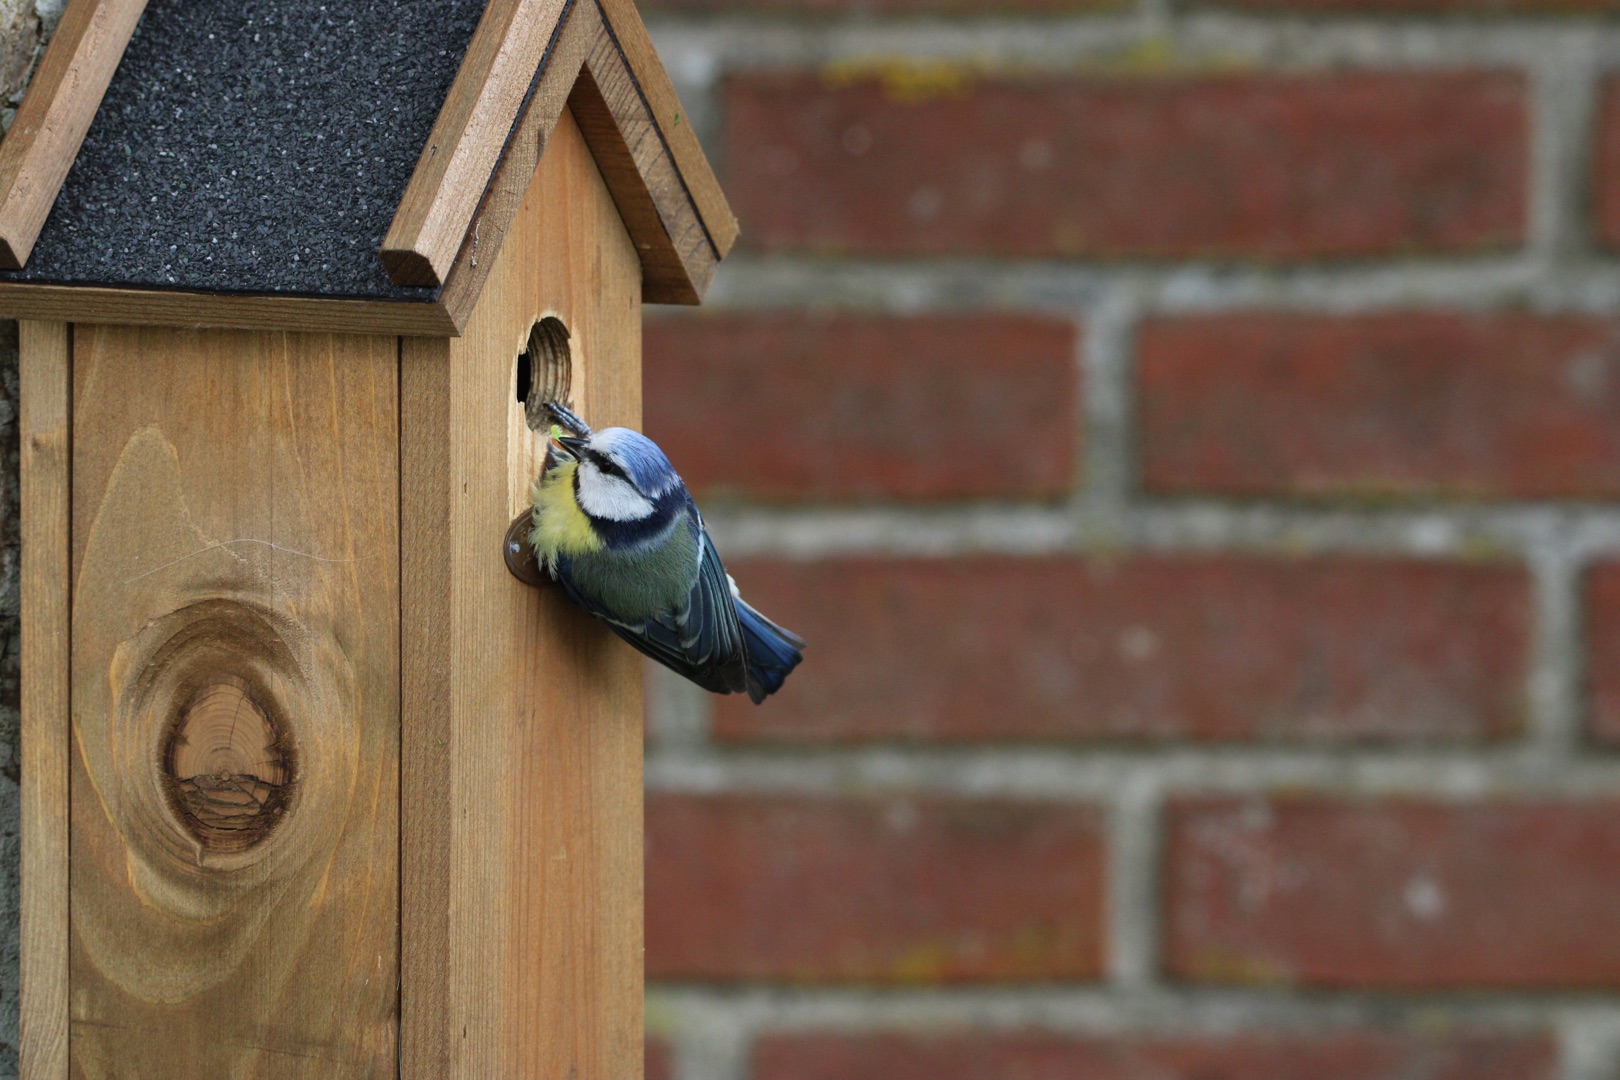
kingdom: Animalia
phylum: Chordata
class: Aves
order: Passeriformes
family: Paridae
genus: Cyanistes
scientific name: Cyanistes caeruleus
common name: Blåmejse
